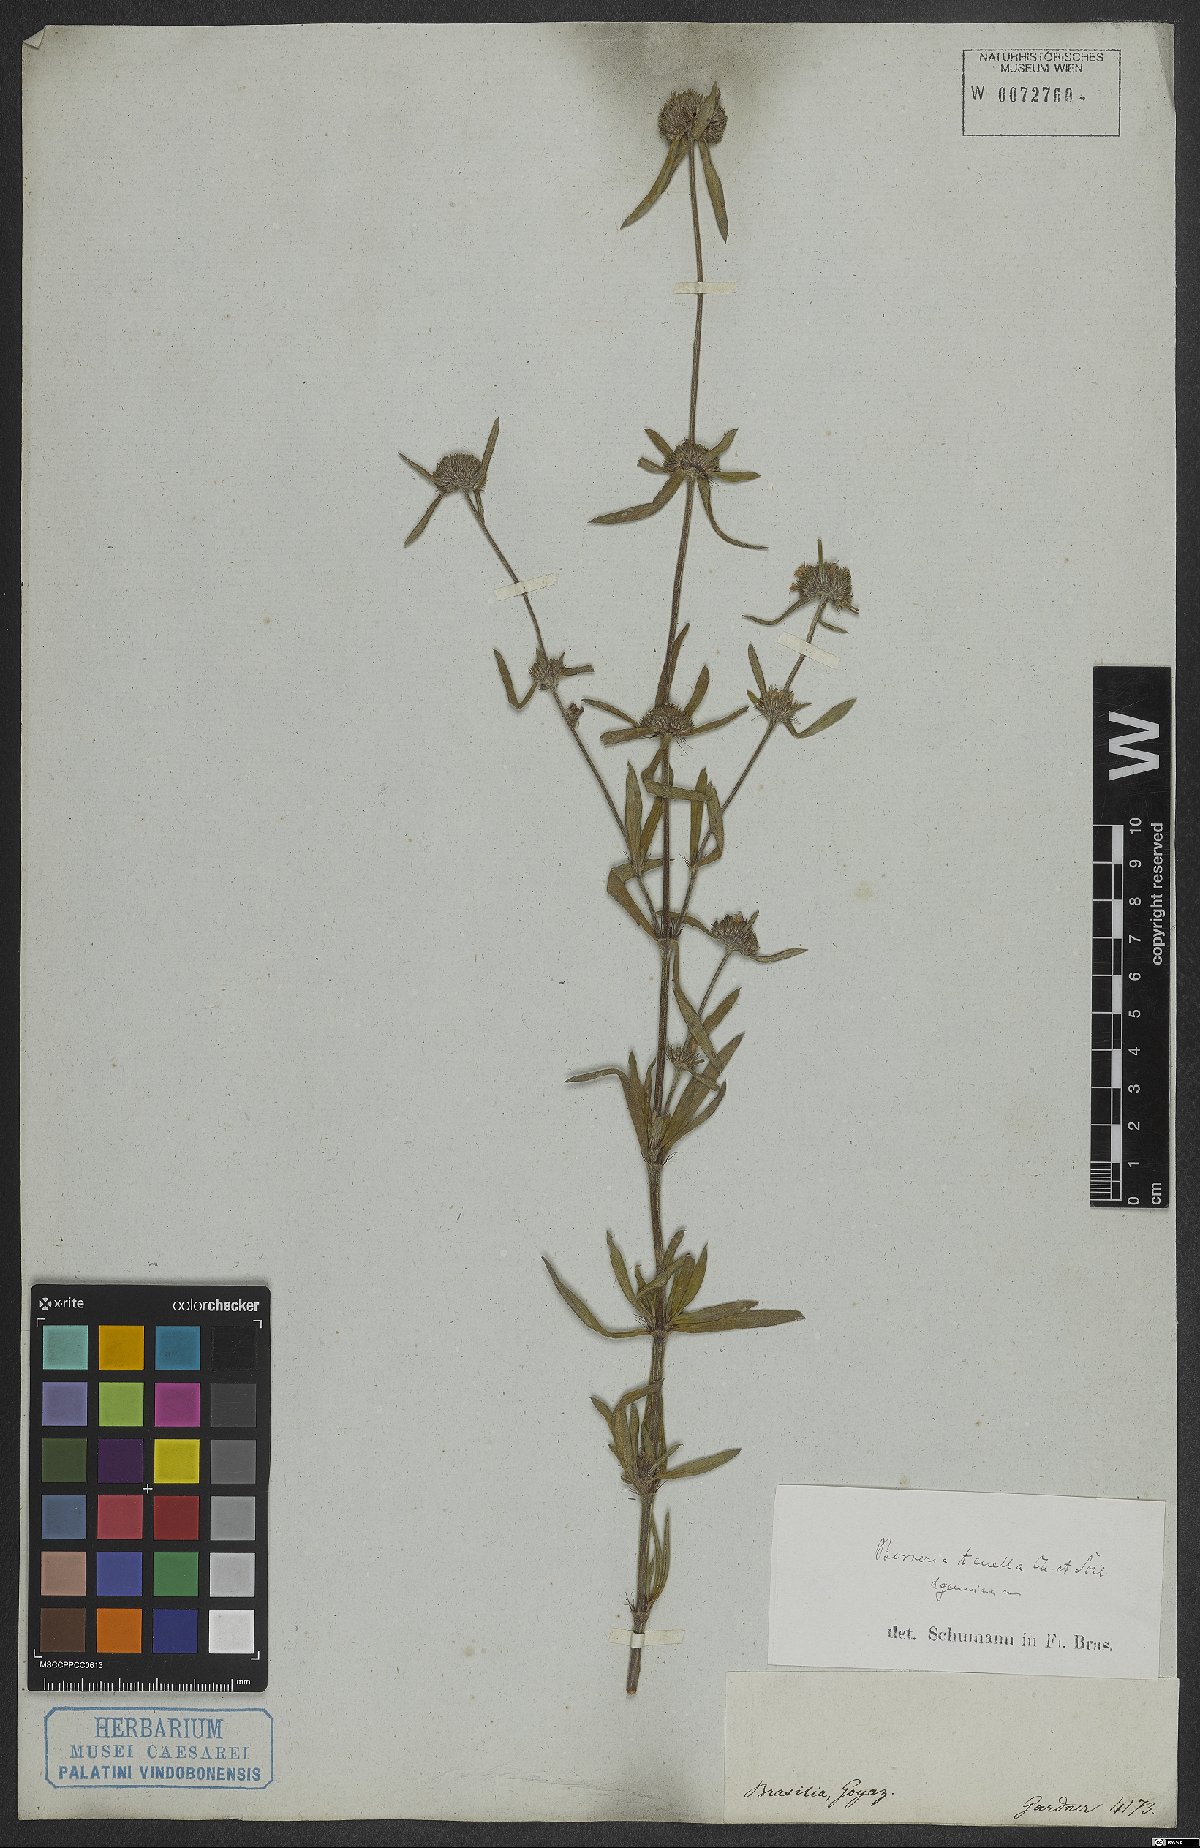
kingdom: Plantae
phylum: Tracheophyta
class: Magnoliopsida
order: Gentianales
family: Rubiaceae
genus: Spermacoce
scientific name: Spermacoce orinocensis
